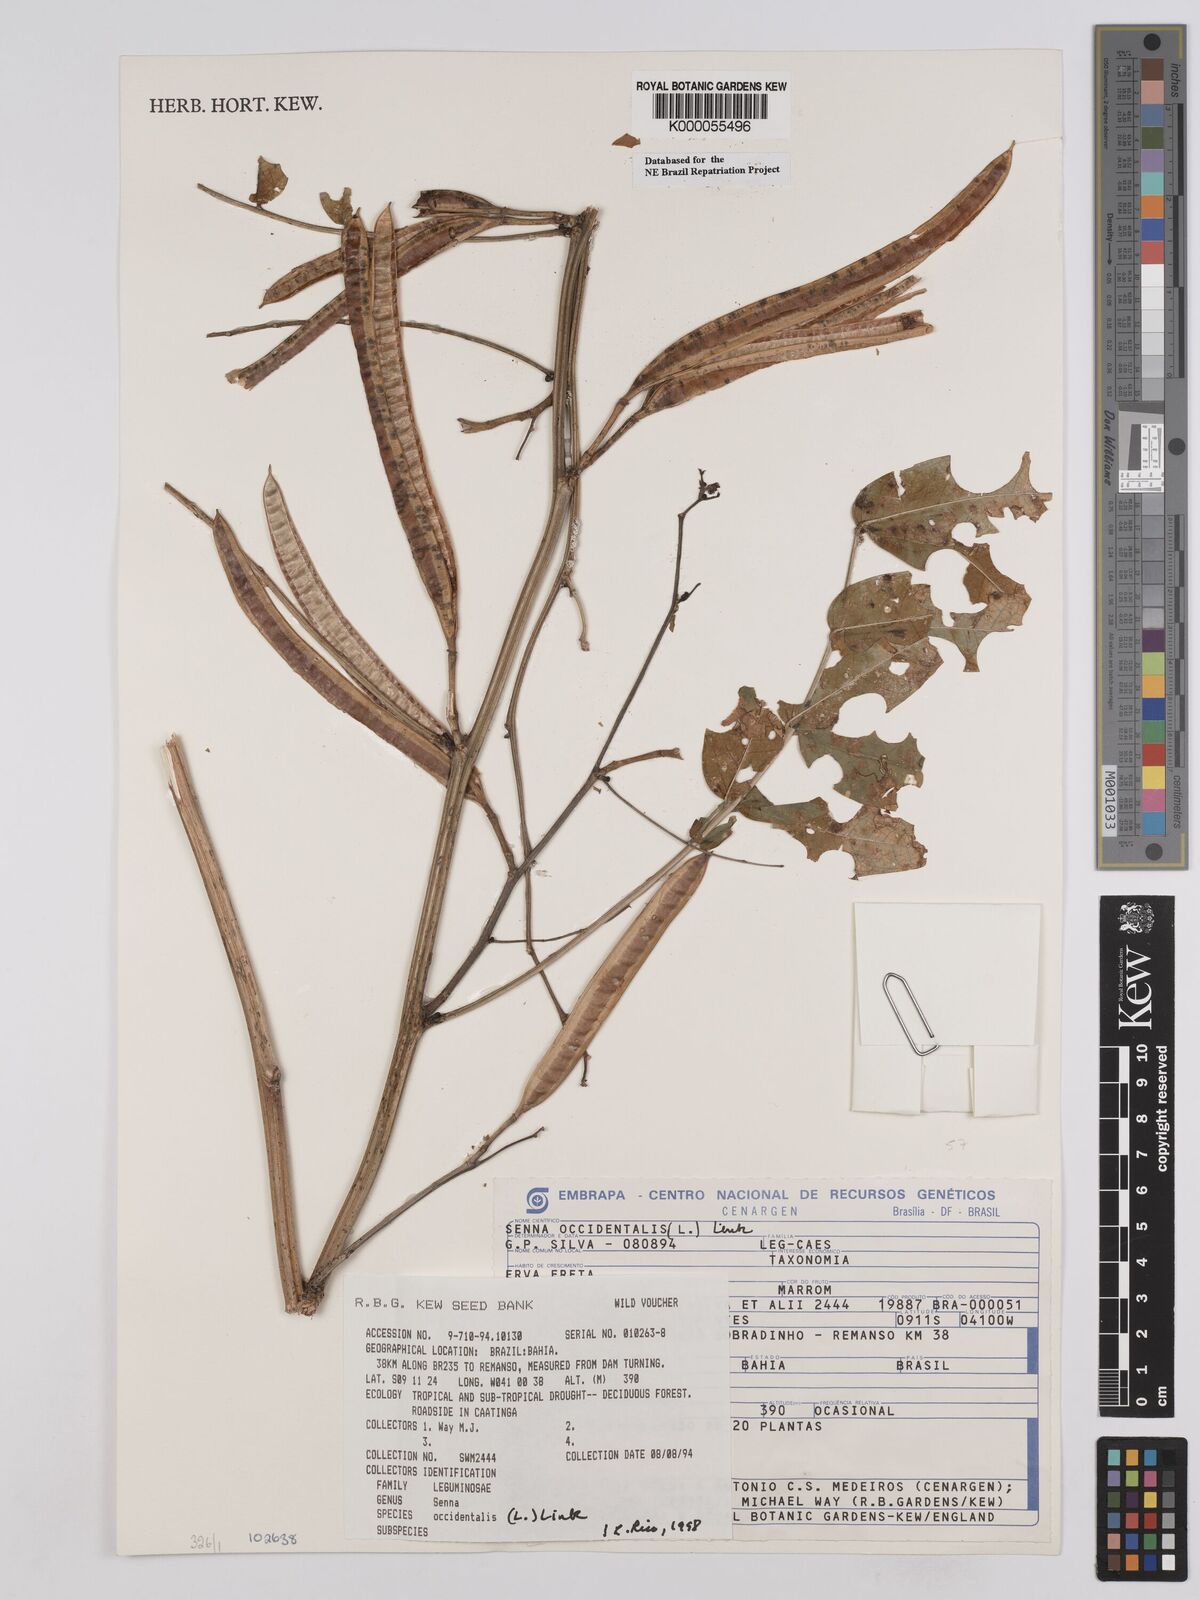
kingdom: Plantae
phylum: Tracheophyta
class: Magnoliopsida
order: Fabales
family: Fabaceae
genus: Senna
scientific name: Senna occidentalis
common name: Septicweed
